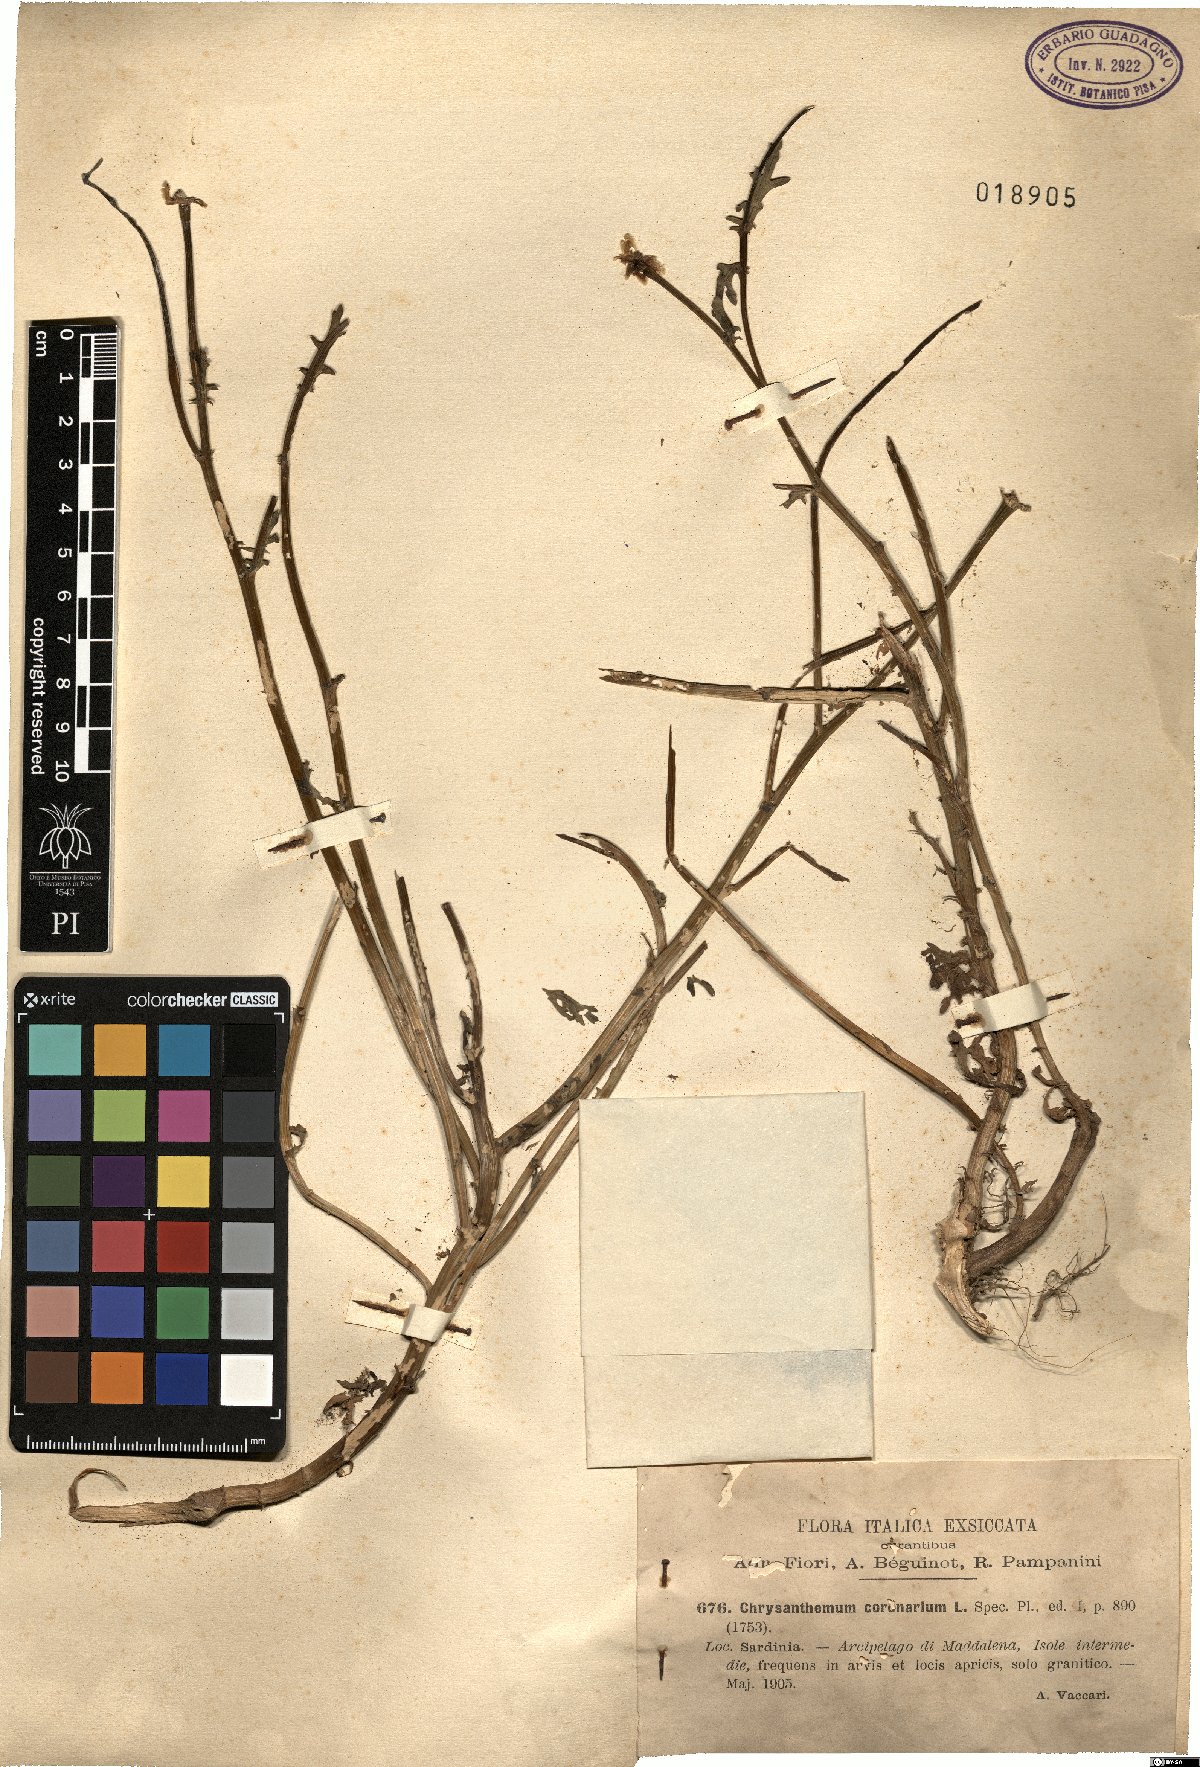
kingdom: Plantae
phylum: Tracheophyta
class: Magnoliopsida
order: Asterales
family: Asteraceae
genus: Glebionis
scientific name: Glebionis coronaria
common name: Crowndaisy
